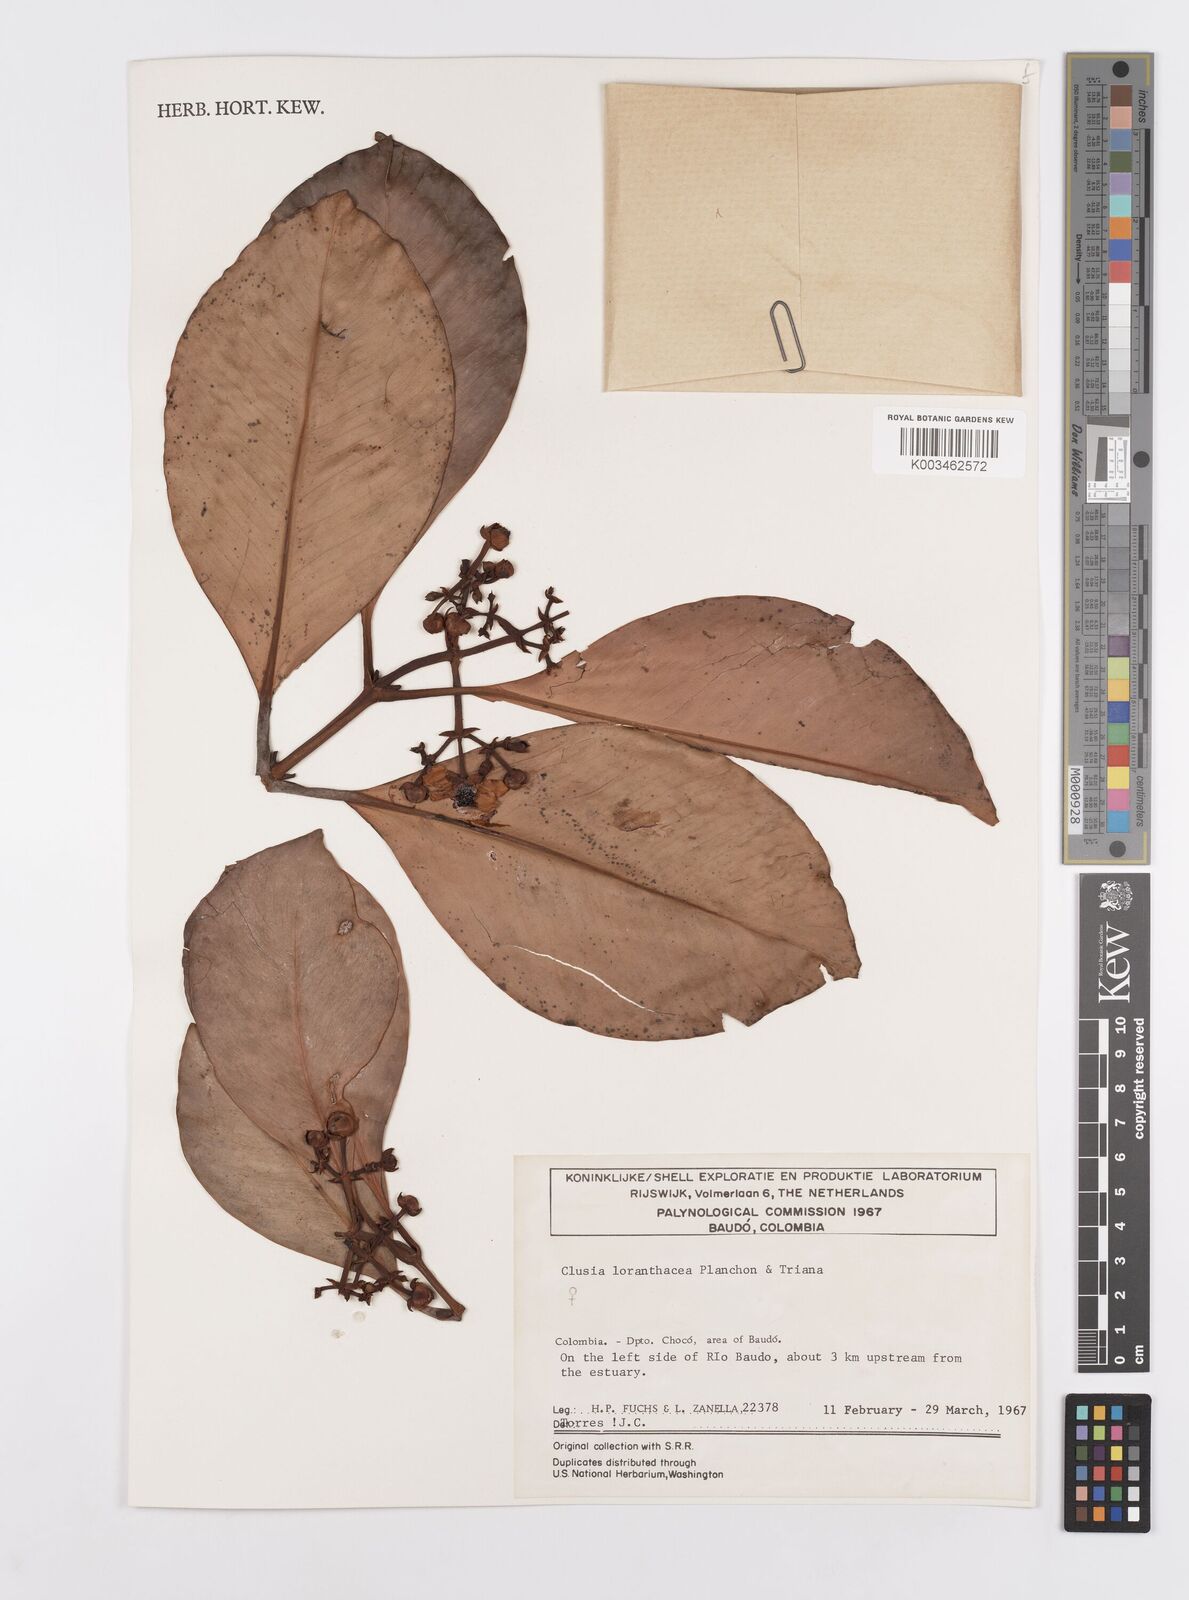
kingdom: Plantae
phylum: Tracheophyta
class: Magnoliopsida
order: Malpighiales
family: Clusiaceae
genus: Clusia
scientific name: Clusia loranthacea
